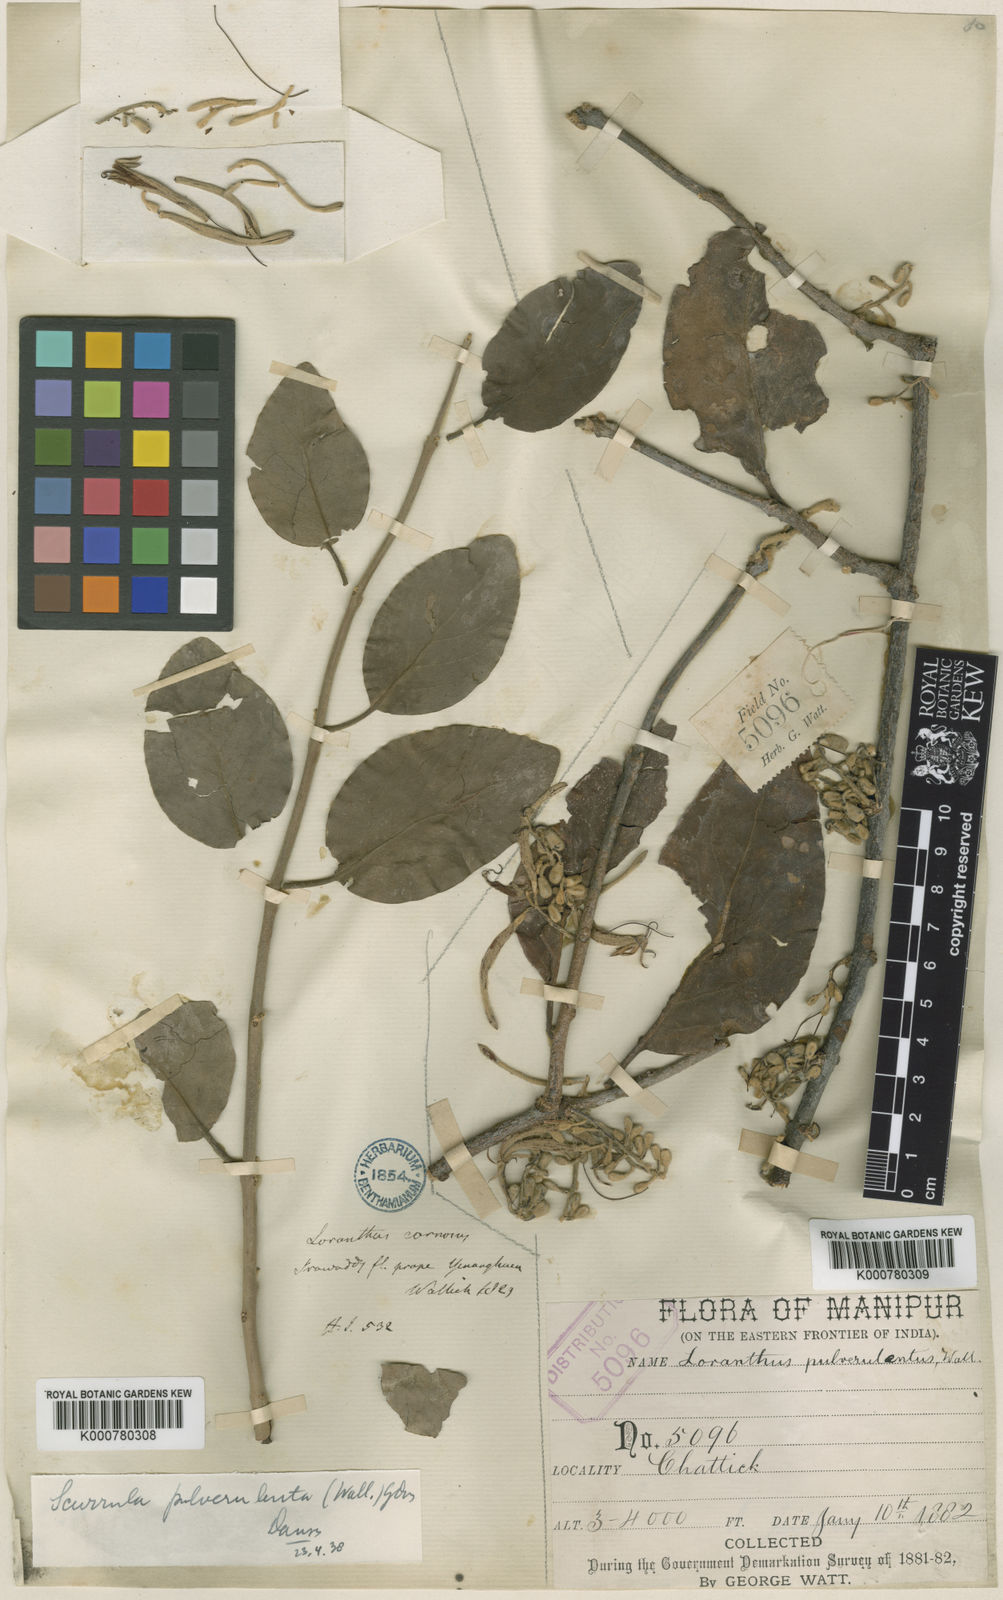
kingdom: Plantae
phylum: Tracheophyta
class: Magnoliopsida
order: Santalales
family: Loranthaceae
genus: Scurrula
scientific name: Scurrula pulverulenta
